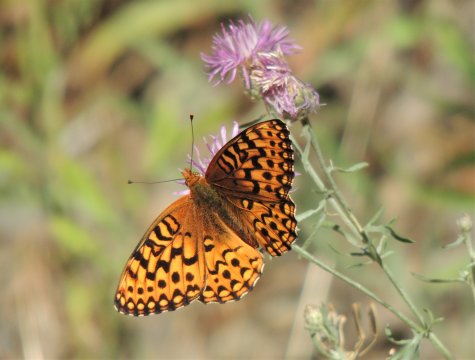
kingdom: Animalia
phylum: Arthropoda
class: Insecta
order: Lepidoptera
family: Nymphalidae
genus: Speyeria
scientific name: Speyeria hydaspe
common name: Hydaspe Fritillary
